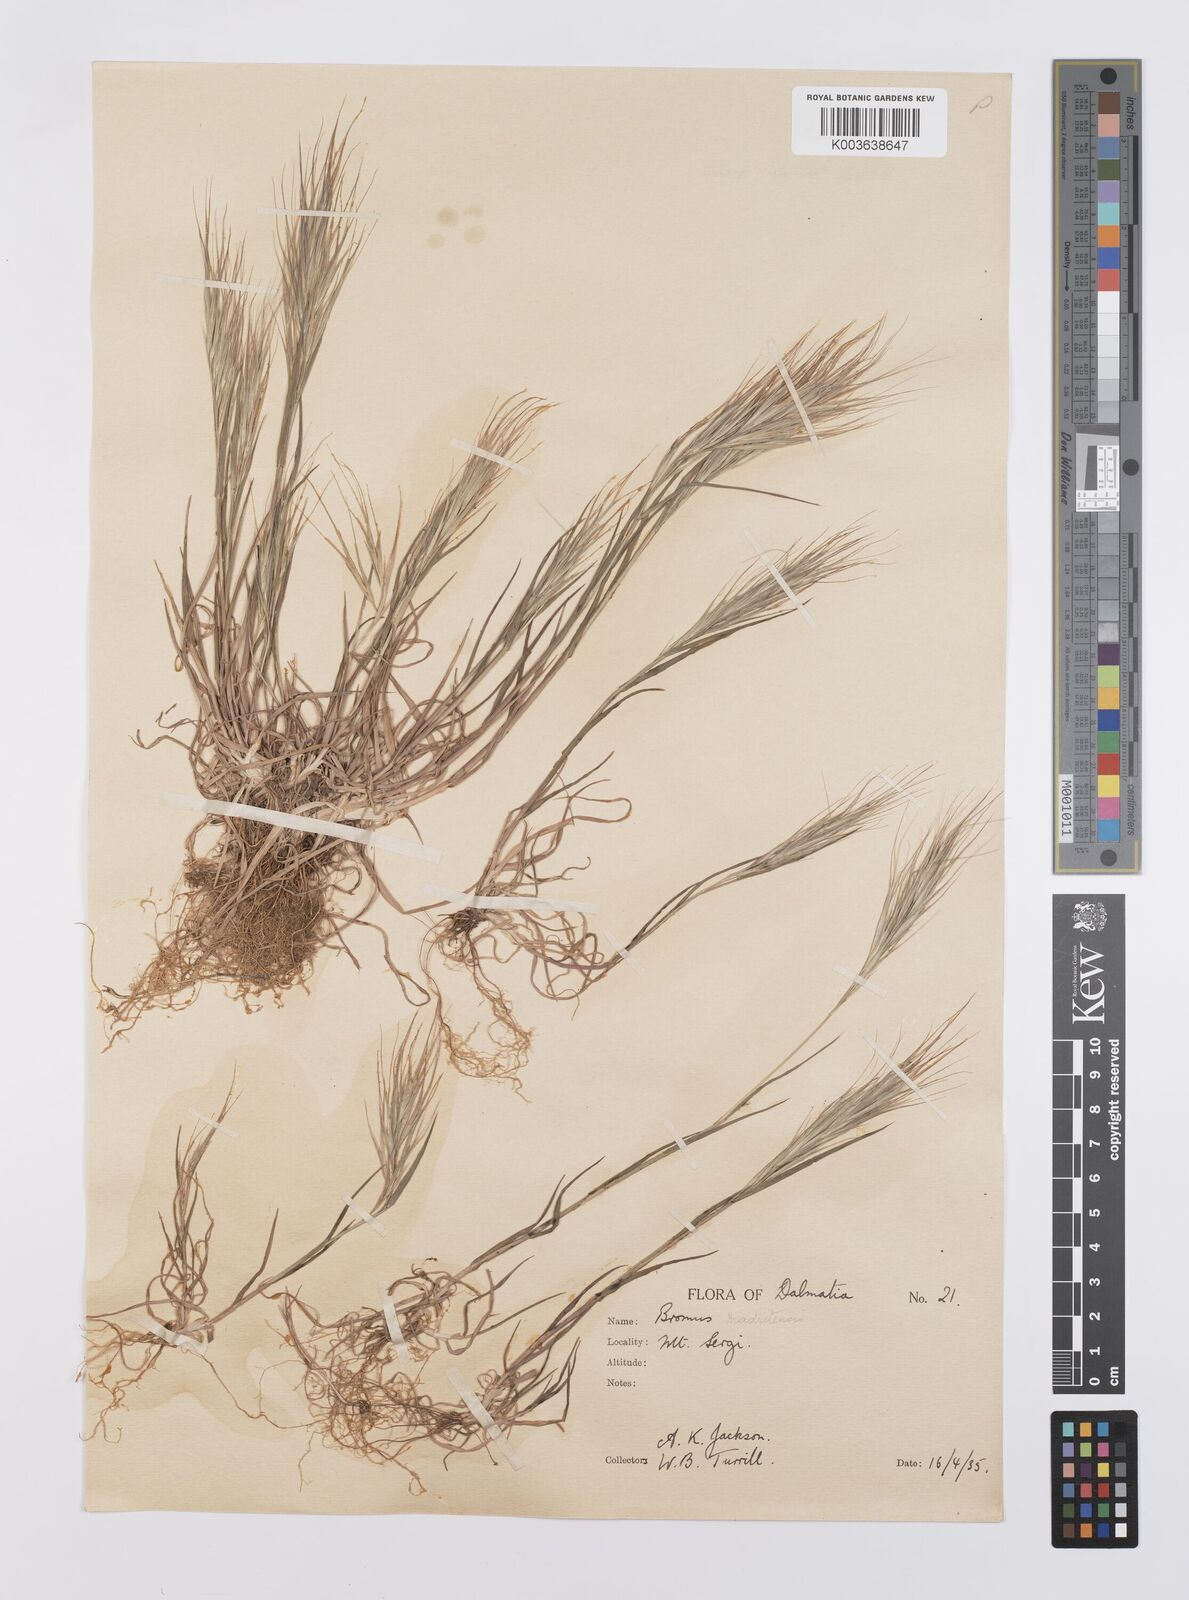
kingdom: Plantae
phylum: Tracheophyta
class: Liliopsida
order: Poales
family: Poaceae
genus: Bromus
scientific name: Bromus madritensis
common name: Compact brome
